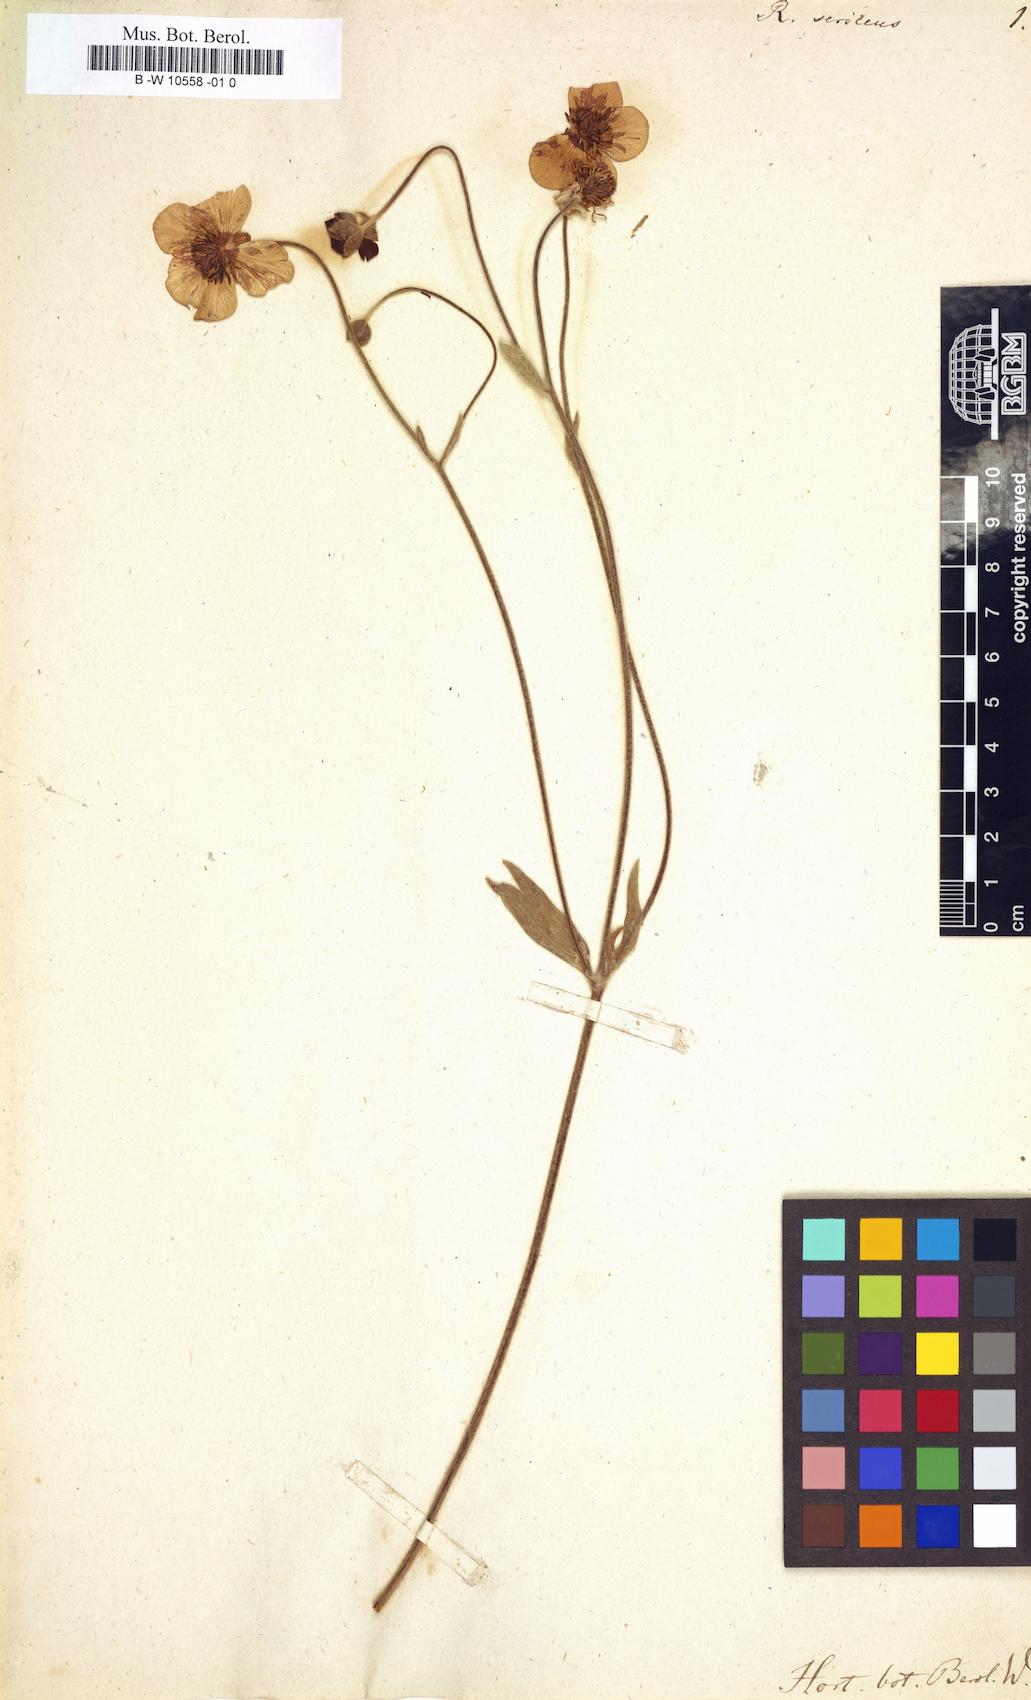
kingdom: Plantae
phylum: Tracheophyta
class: Magnoliopsida
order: Ranunculales
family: Ranunculaceae
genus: Ranunculus
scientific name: Ranunculus sericeus
